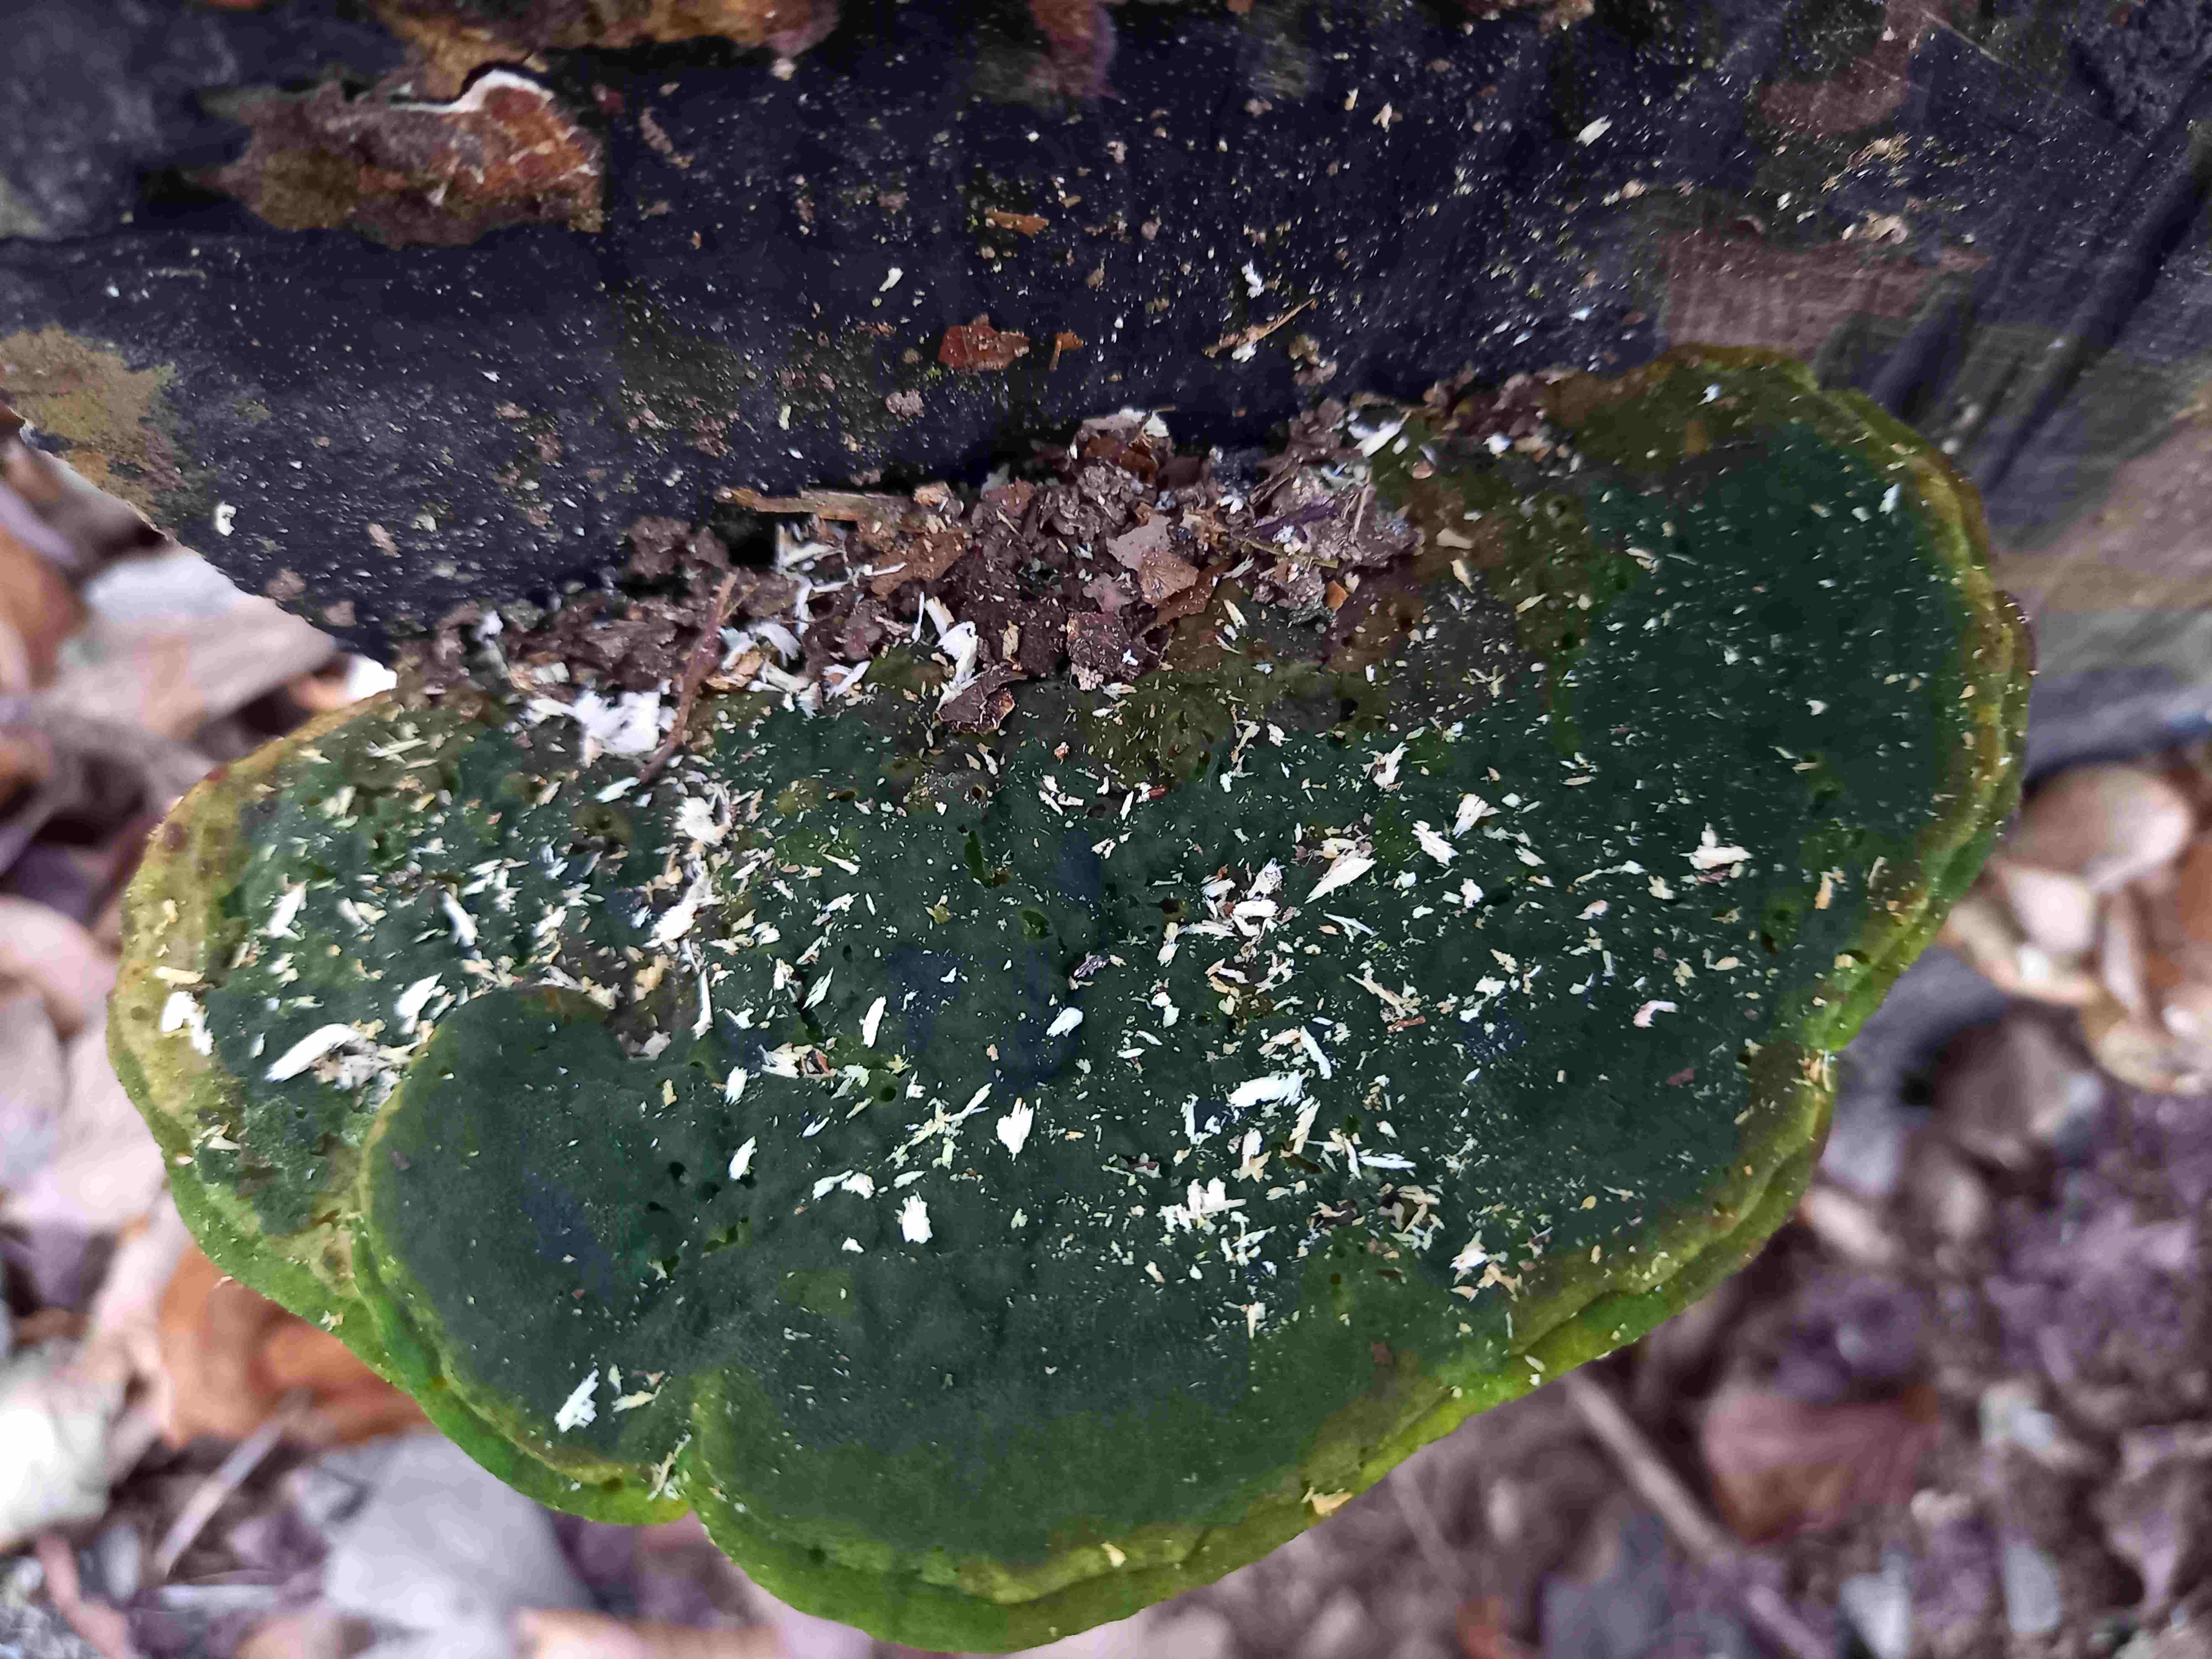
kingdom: Fungi
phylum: Basidiomycota
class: Agaricomycetes
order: Polyporales
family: Polyporaceae
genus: Trametes
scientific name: Trametes
